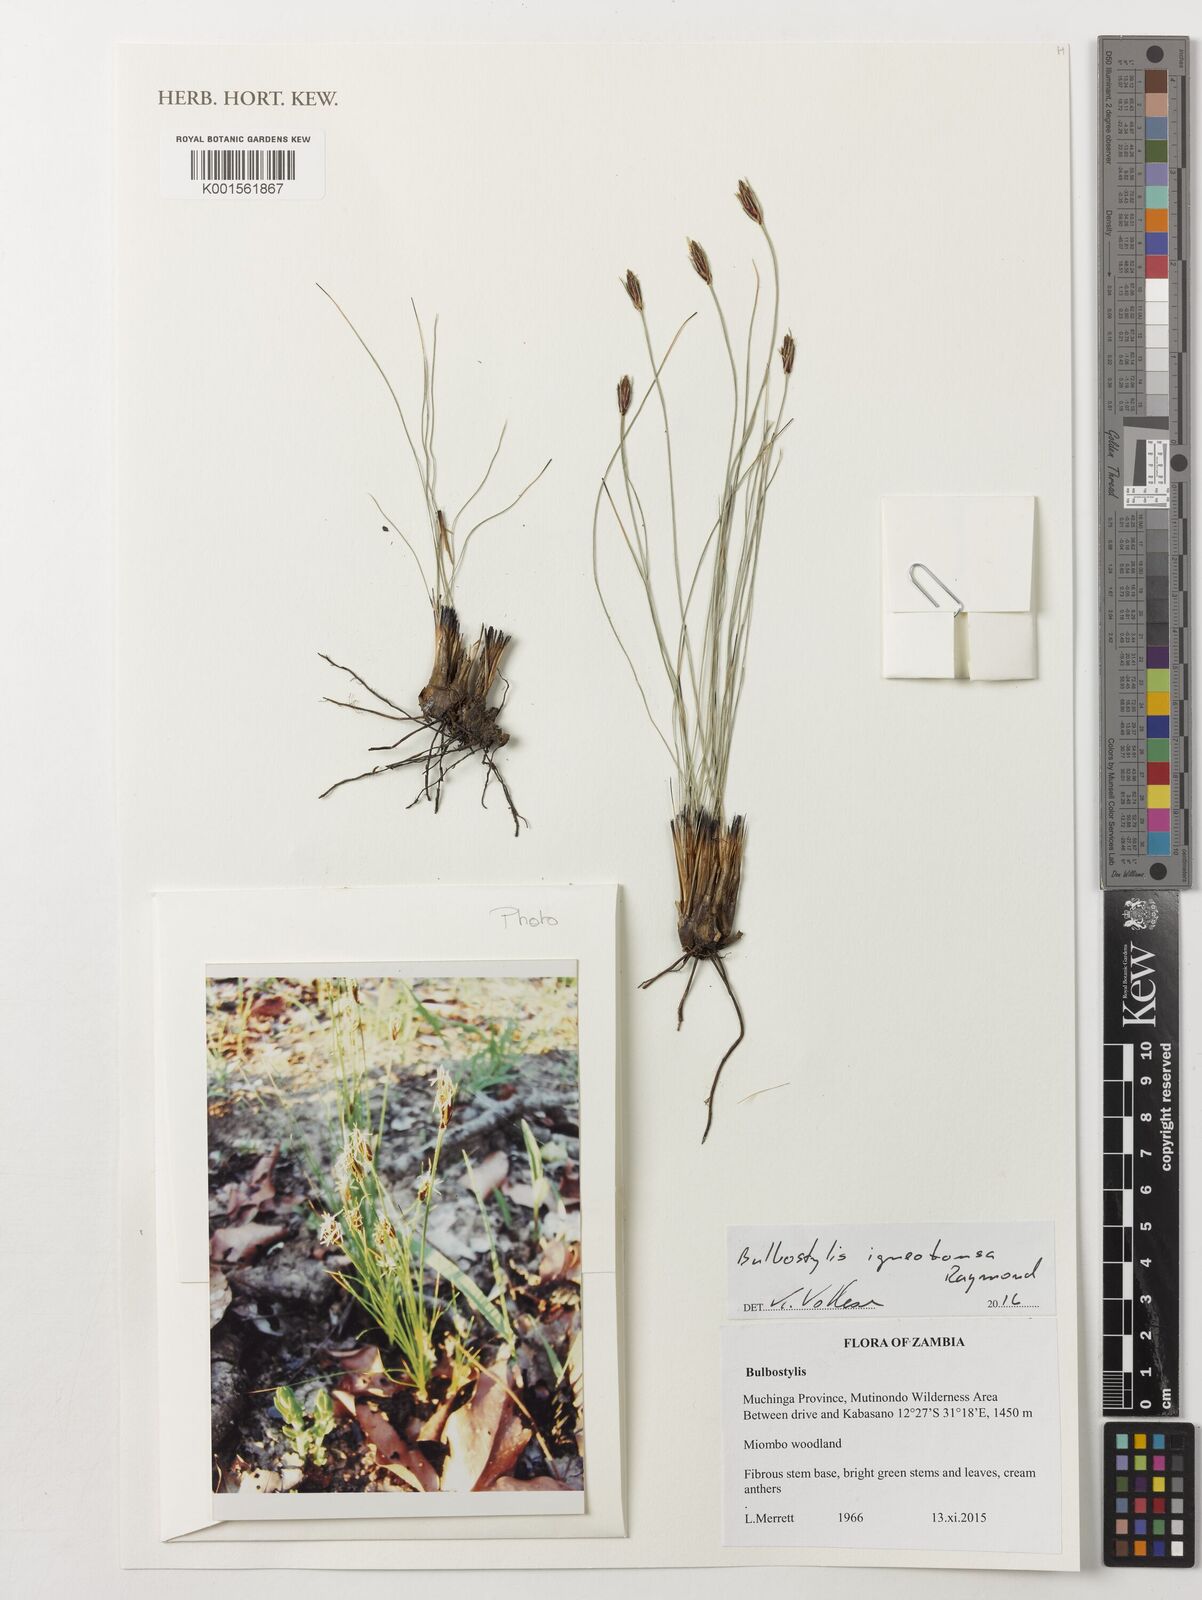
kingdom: Plantae
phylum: Tracheophyta
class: Liliopsida
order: Poales
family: Cyperaceae
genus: Bulbostylis
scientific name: Bulbostylis igneotonsa
